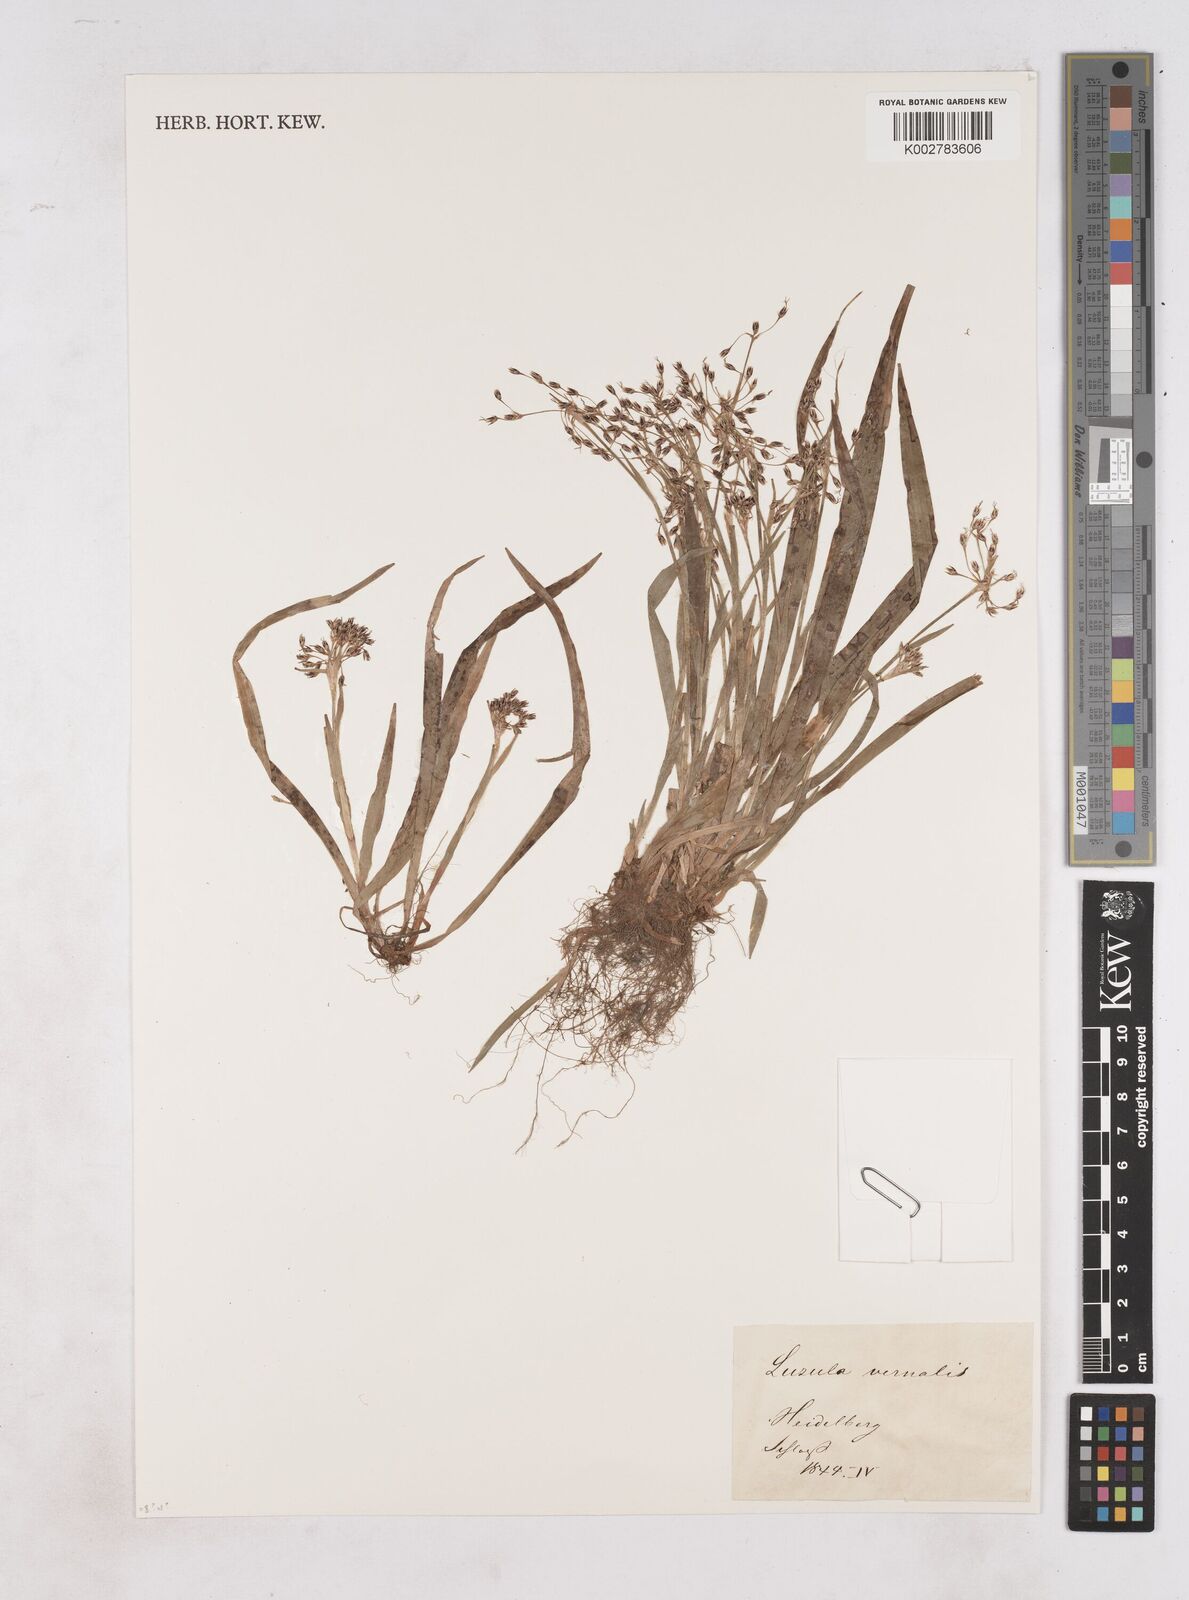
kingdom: Plantae
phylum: Tracheophyta
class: Liliopsida
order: Poales
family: Juncaceae
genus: Luzula
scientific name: Luzula
